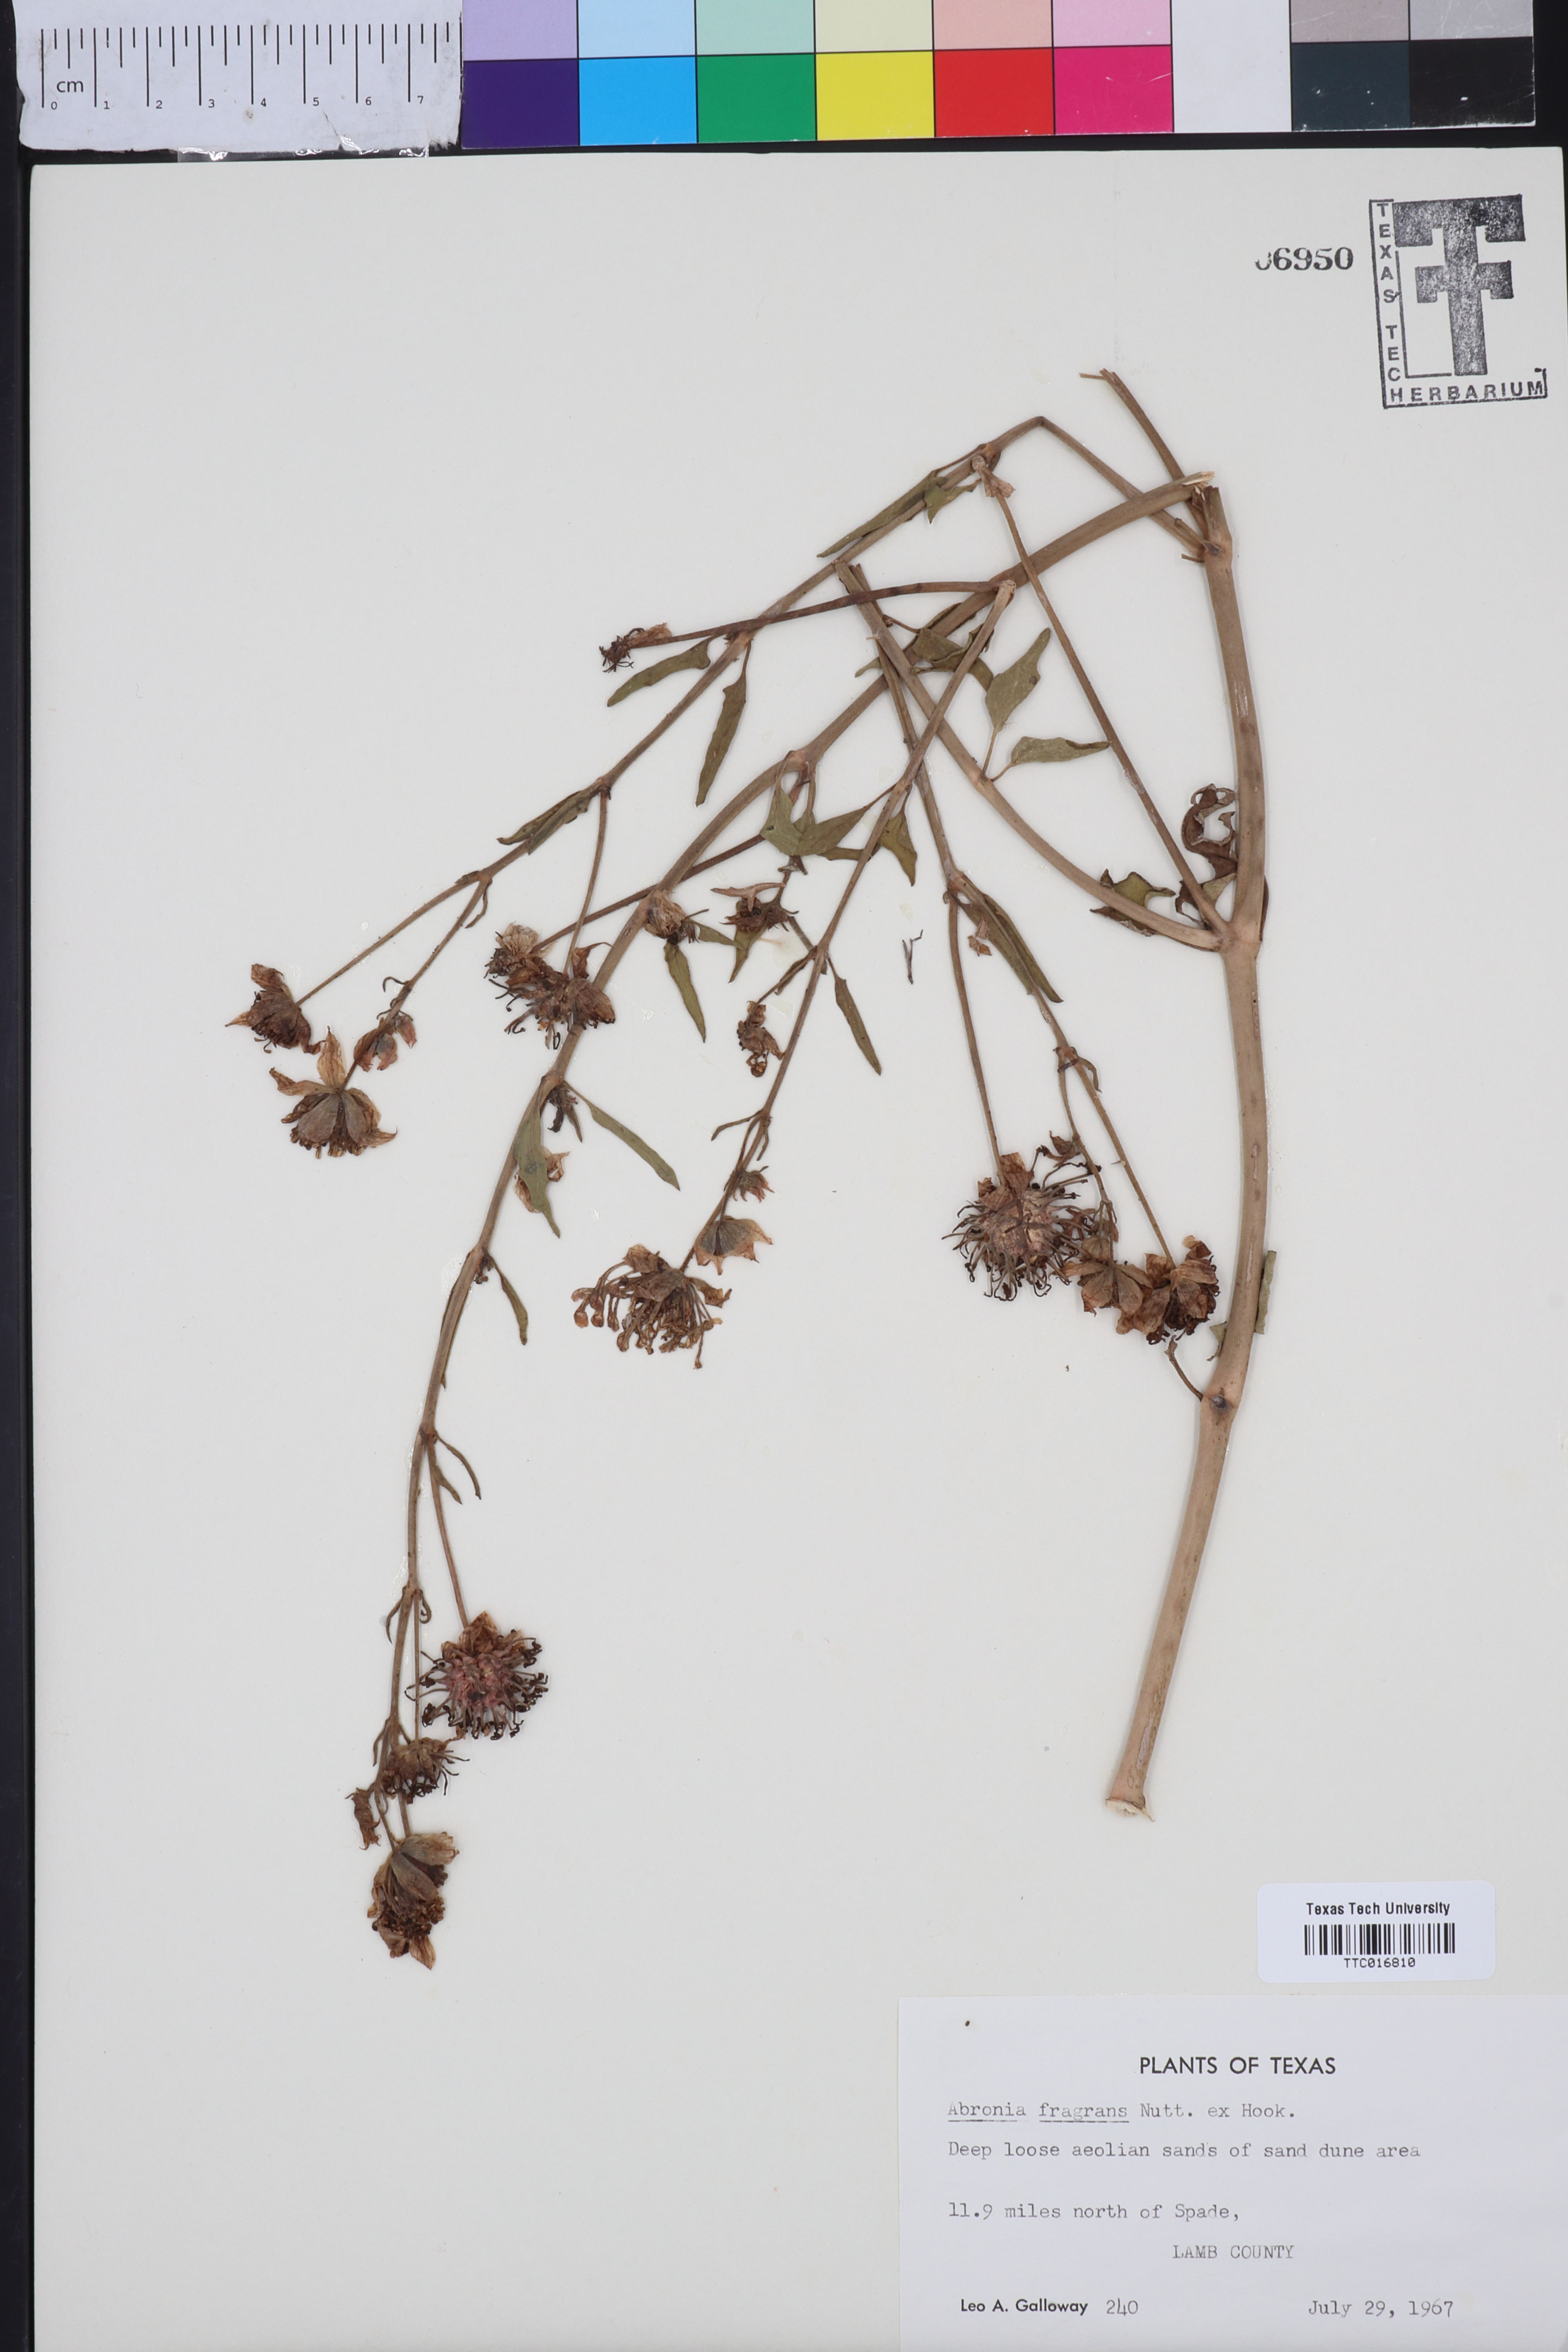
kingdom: Plantae
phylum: Tracheophyta
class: Magnoliopsida
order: Caryophyllales
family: Nyctaginaceae
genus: Abronia
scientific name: Abronia fragrans
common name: Fragrant sand-verbena
